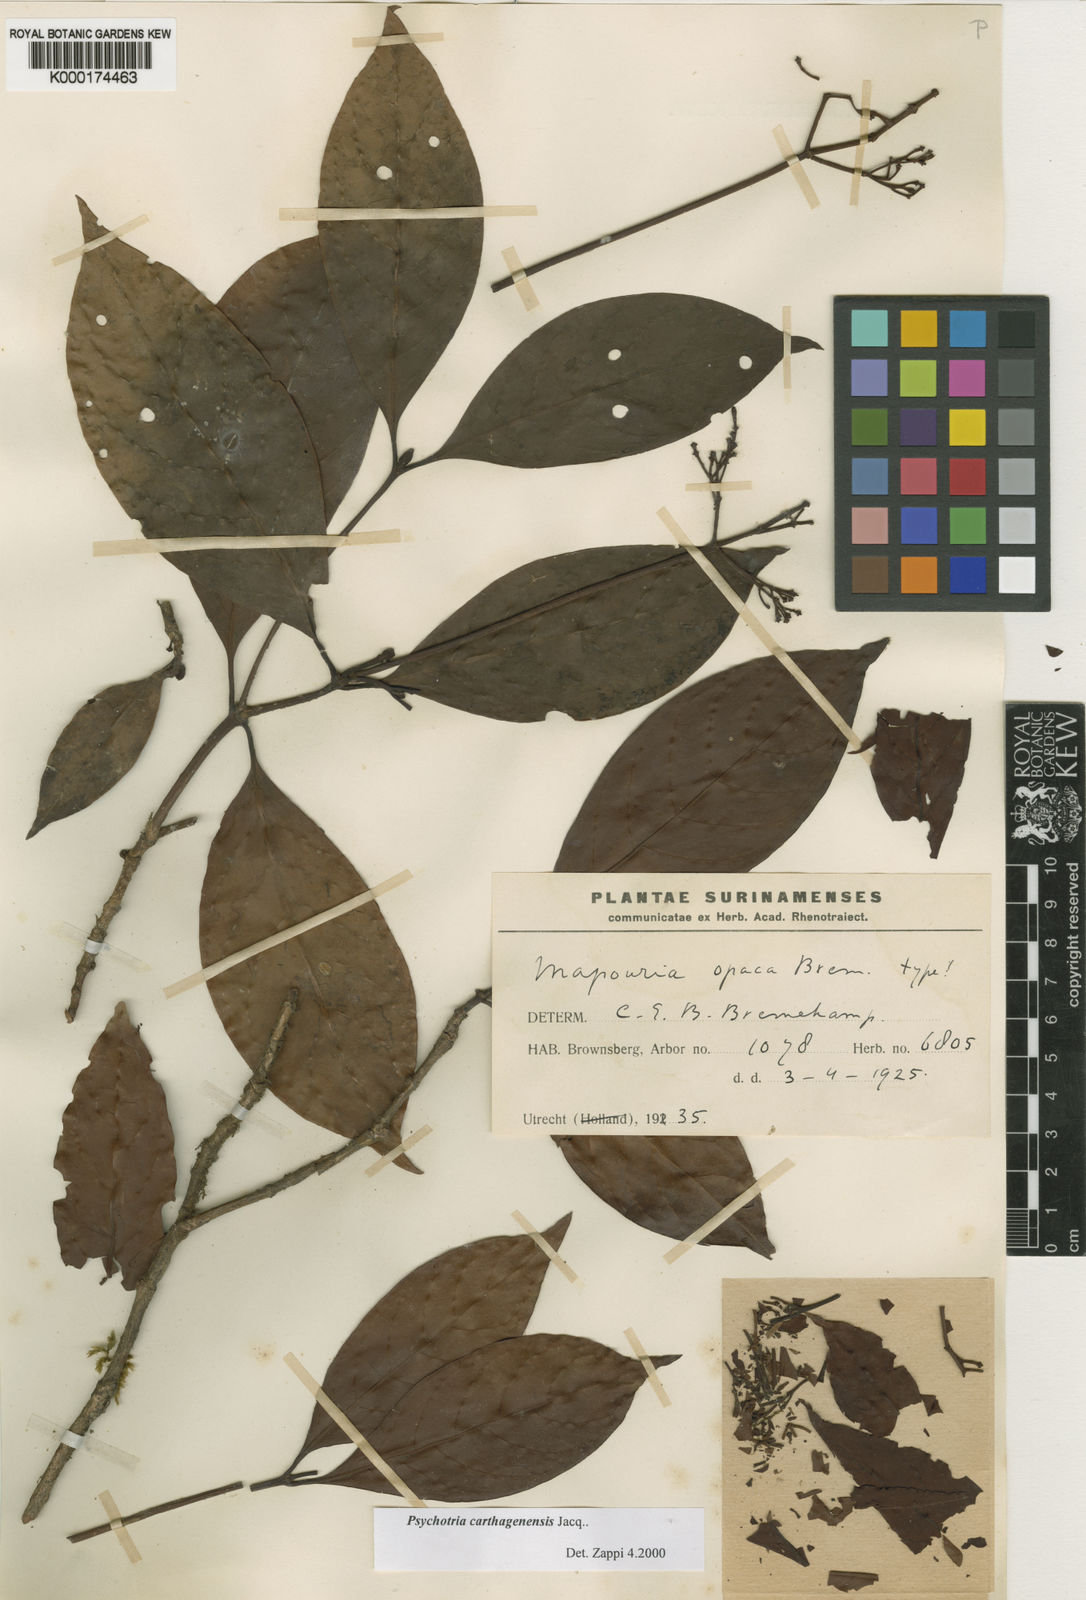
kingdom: Plantae
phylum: Tracheophyta
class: Magnoliopsida
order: Gentianales
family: Rubiaceae
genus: Psychotria
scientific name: Psychotria carthagenensis
